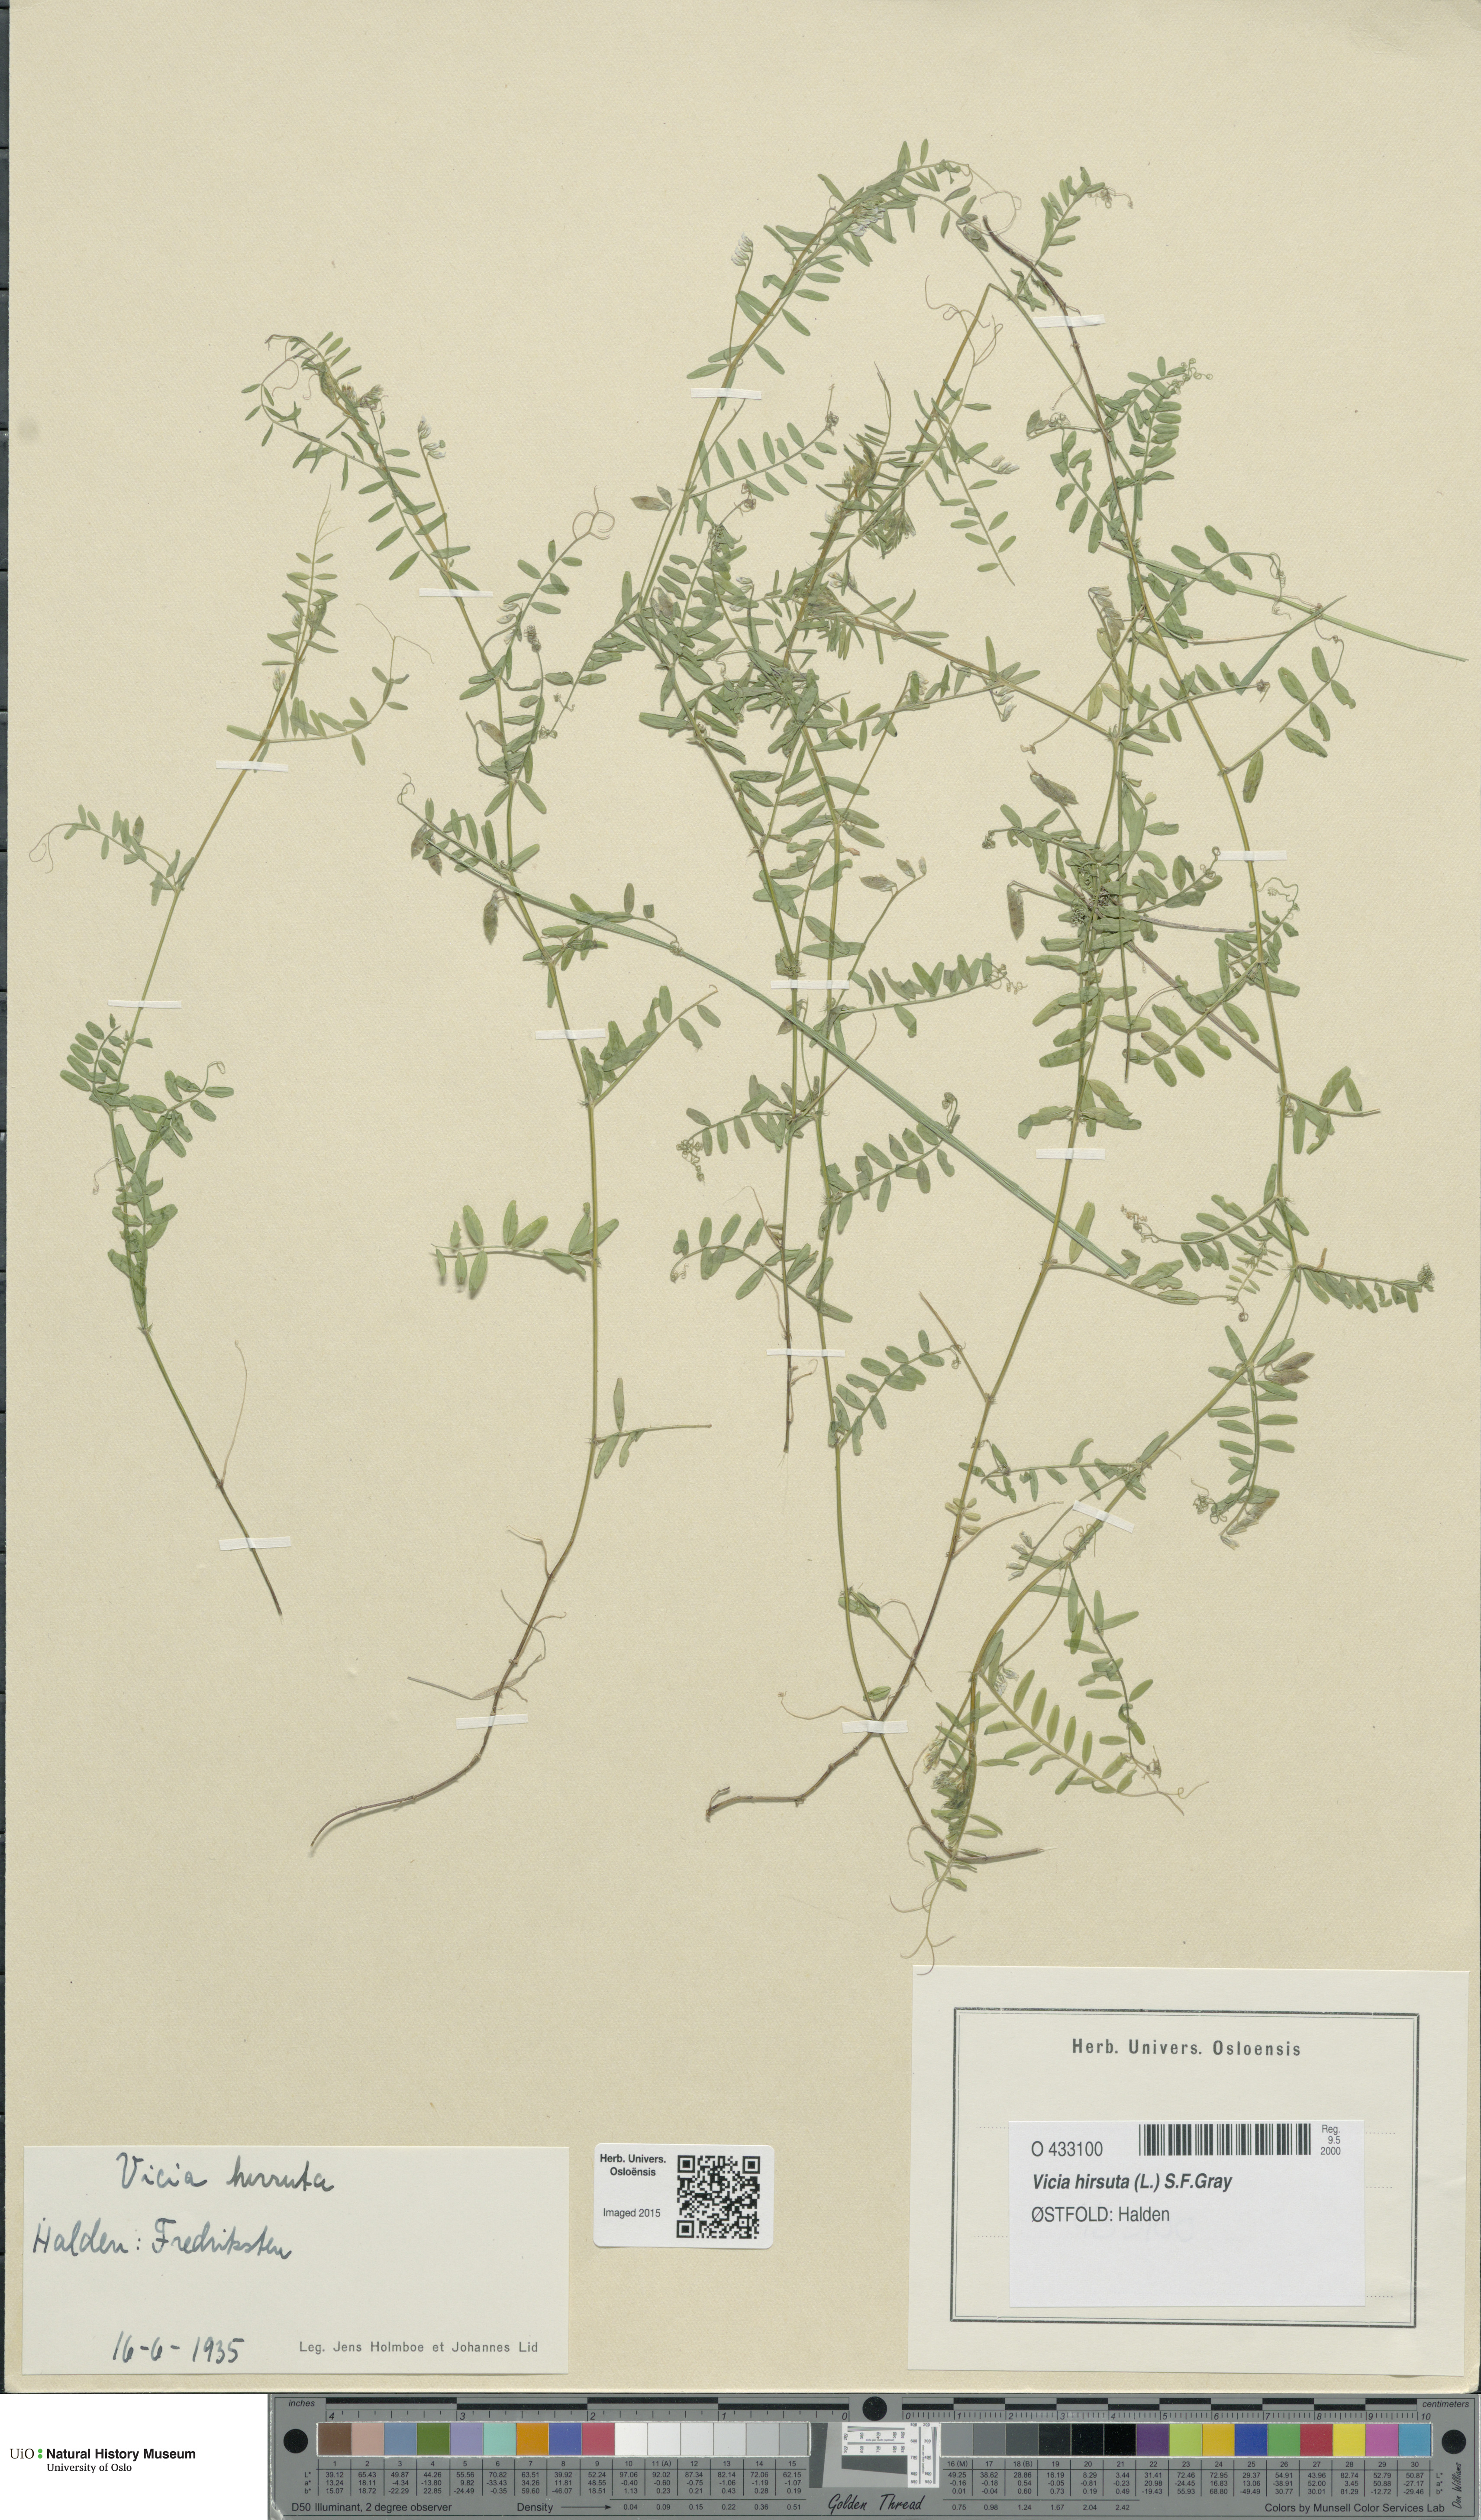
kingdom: Plantae
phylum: Tracheophyta
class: Magnoliopsida
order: Fabales
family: Fabaceae
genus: Vicia
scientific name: Vicia hirsuta
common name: Tiny vetch
